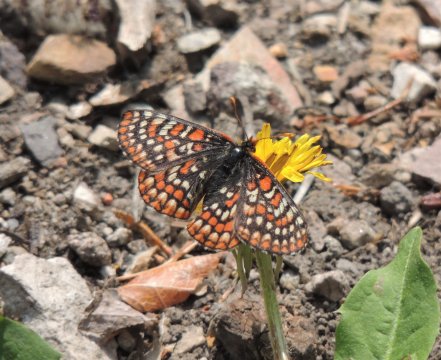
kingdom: Animalia
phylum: Arthropoda
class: Insecta
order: Lepidoptera
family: Nymphalidae
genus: Occidryas
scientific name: Occidryas editha
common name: Edith's Checkerspot
